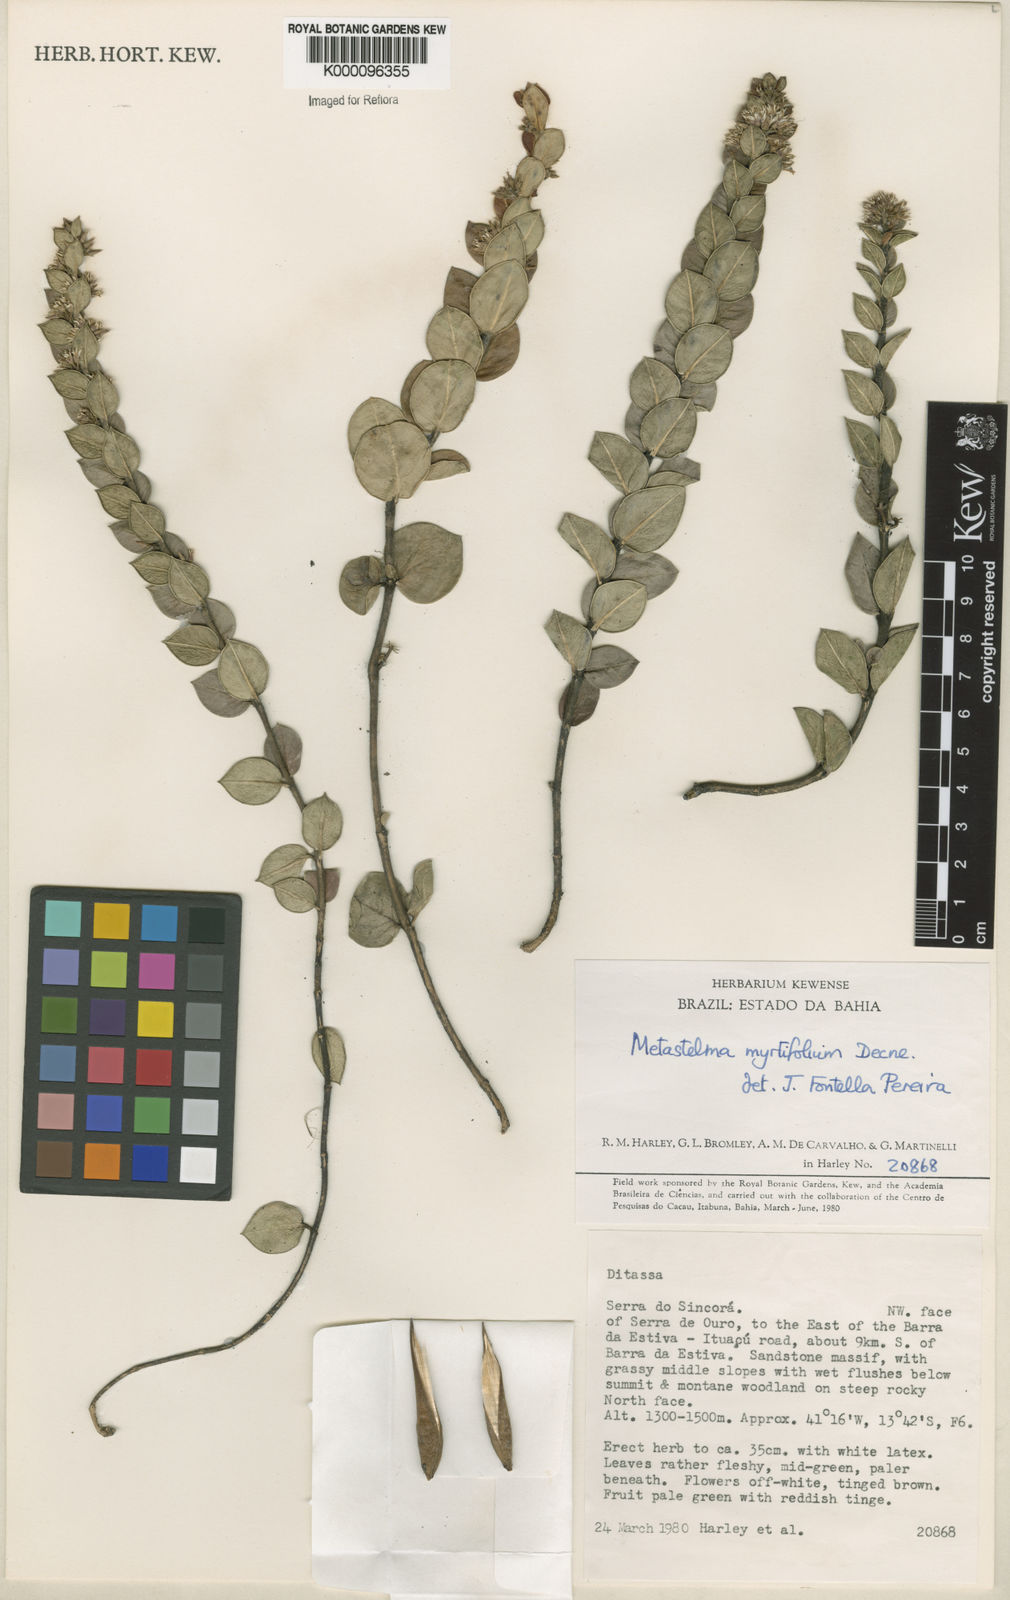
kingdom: Plantae
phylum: Tracheophyta
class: Magnoliopsida
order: Gentianales
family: Apocynaceae
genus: Metastelma
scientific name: Metastelma myrtifolium
